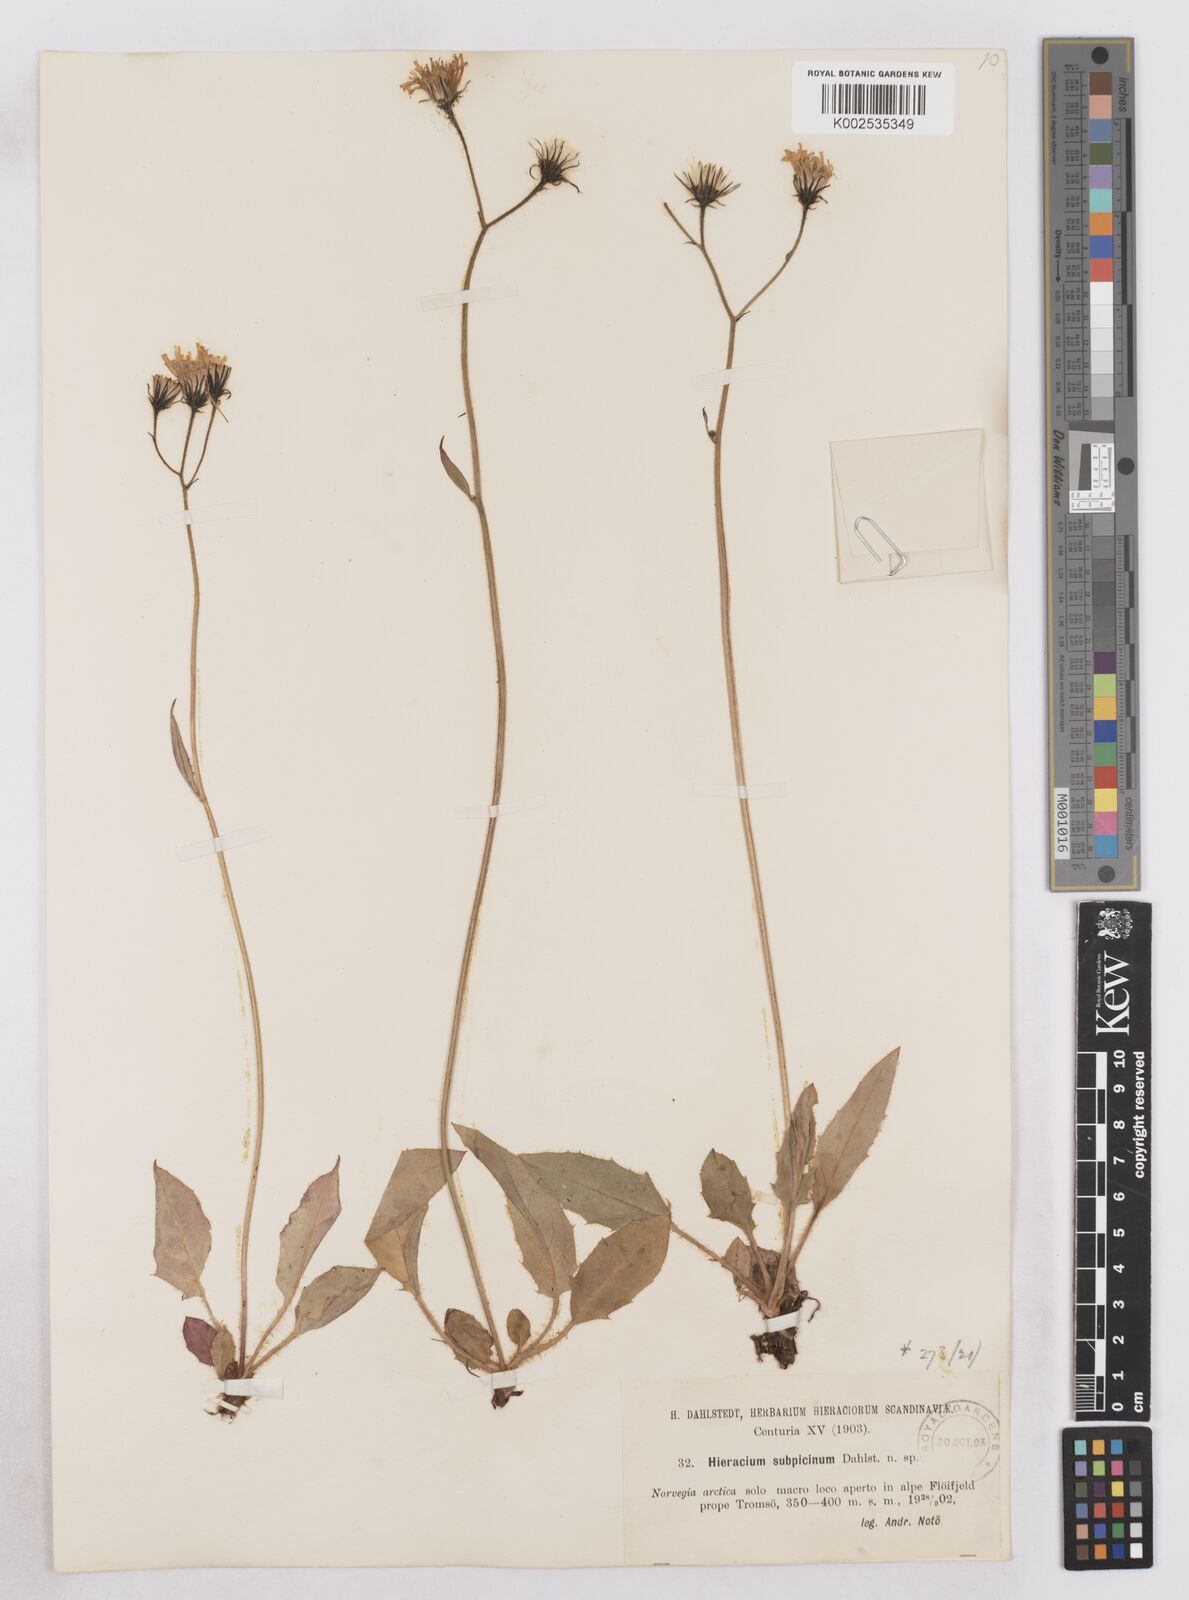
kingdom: Plantae
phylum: Tracheophyta
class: Magnoliopsida
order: Asterales
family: Asteraceae
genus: Hieracium
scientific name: Hieracium conspurcans
